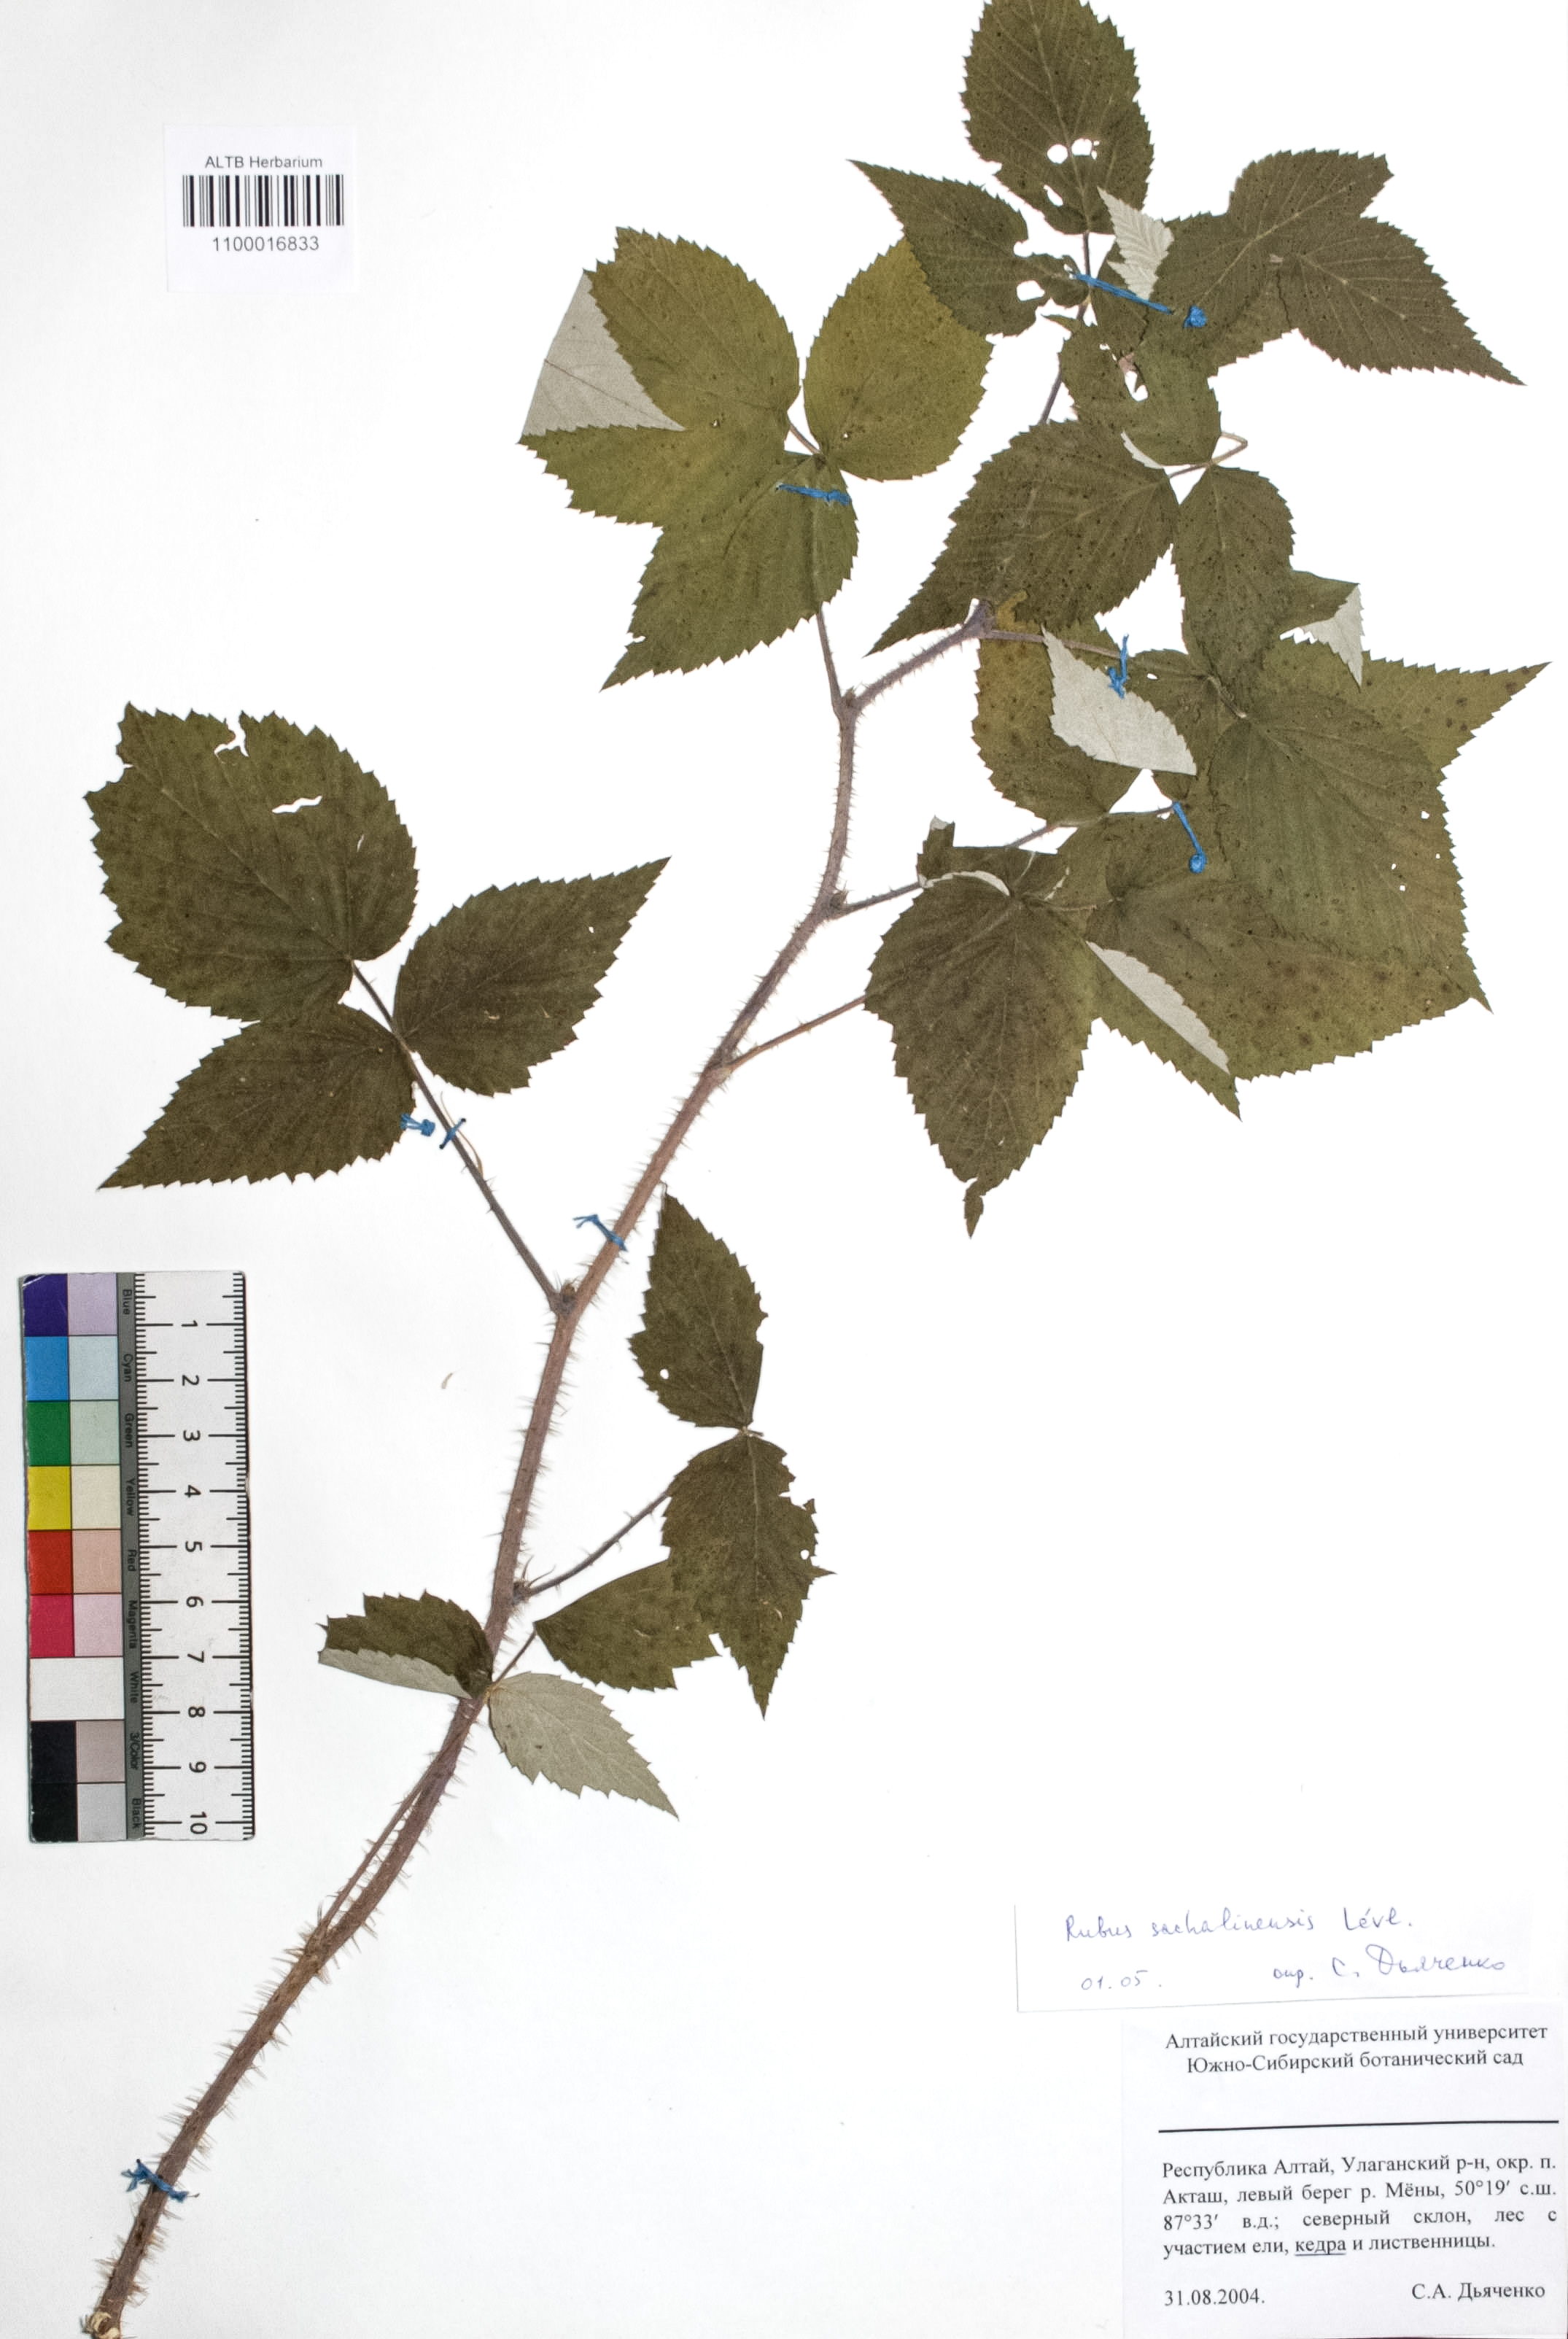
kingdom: Plantae
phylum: Tracheophyta
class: Magnoliopsida
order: Rosales
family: Rosaceae
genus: Rubus
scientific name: Rubus sachalinensis
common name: Red raspberry
